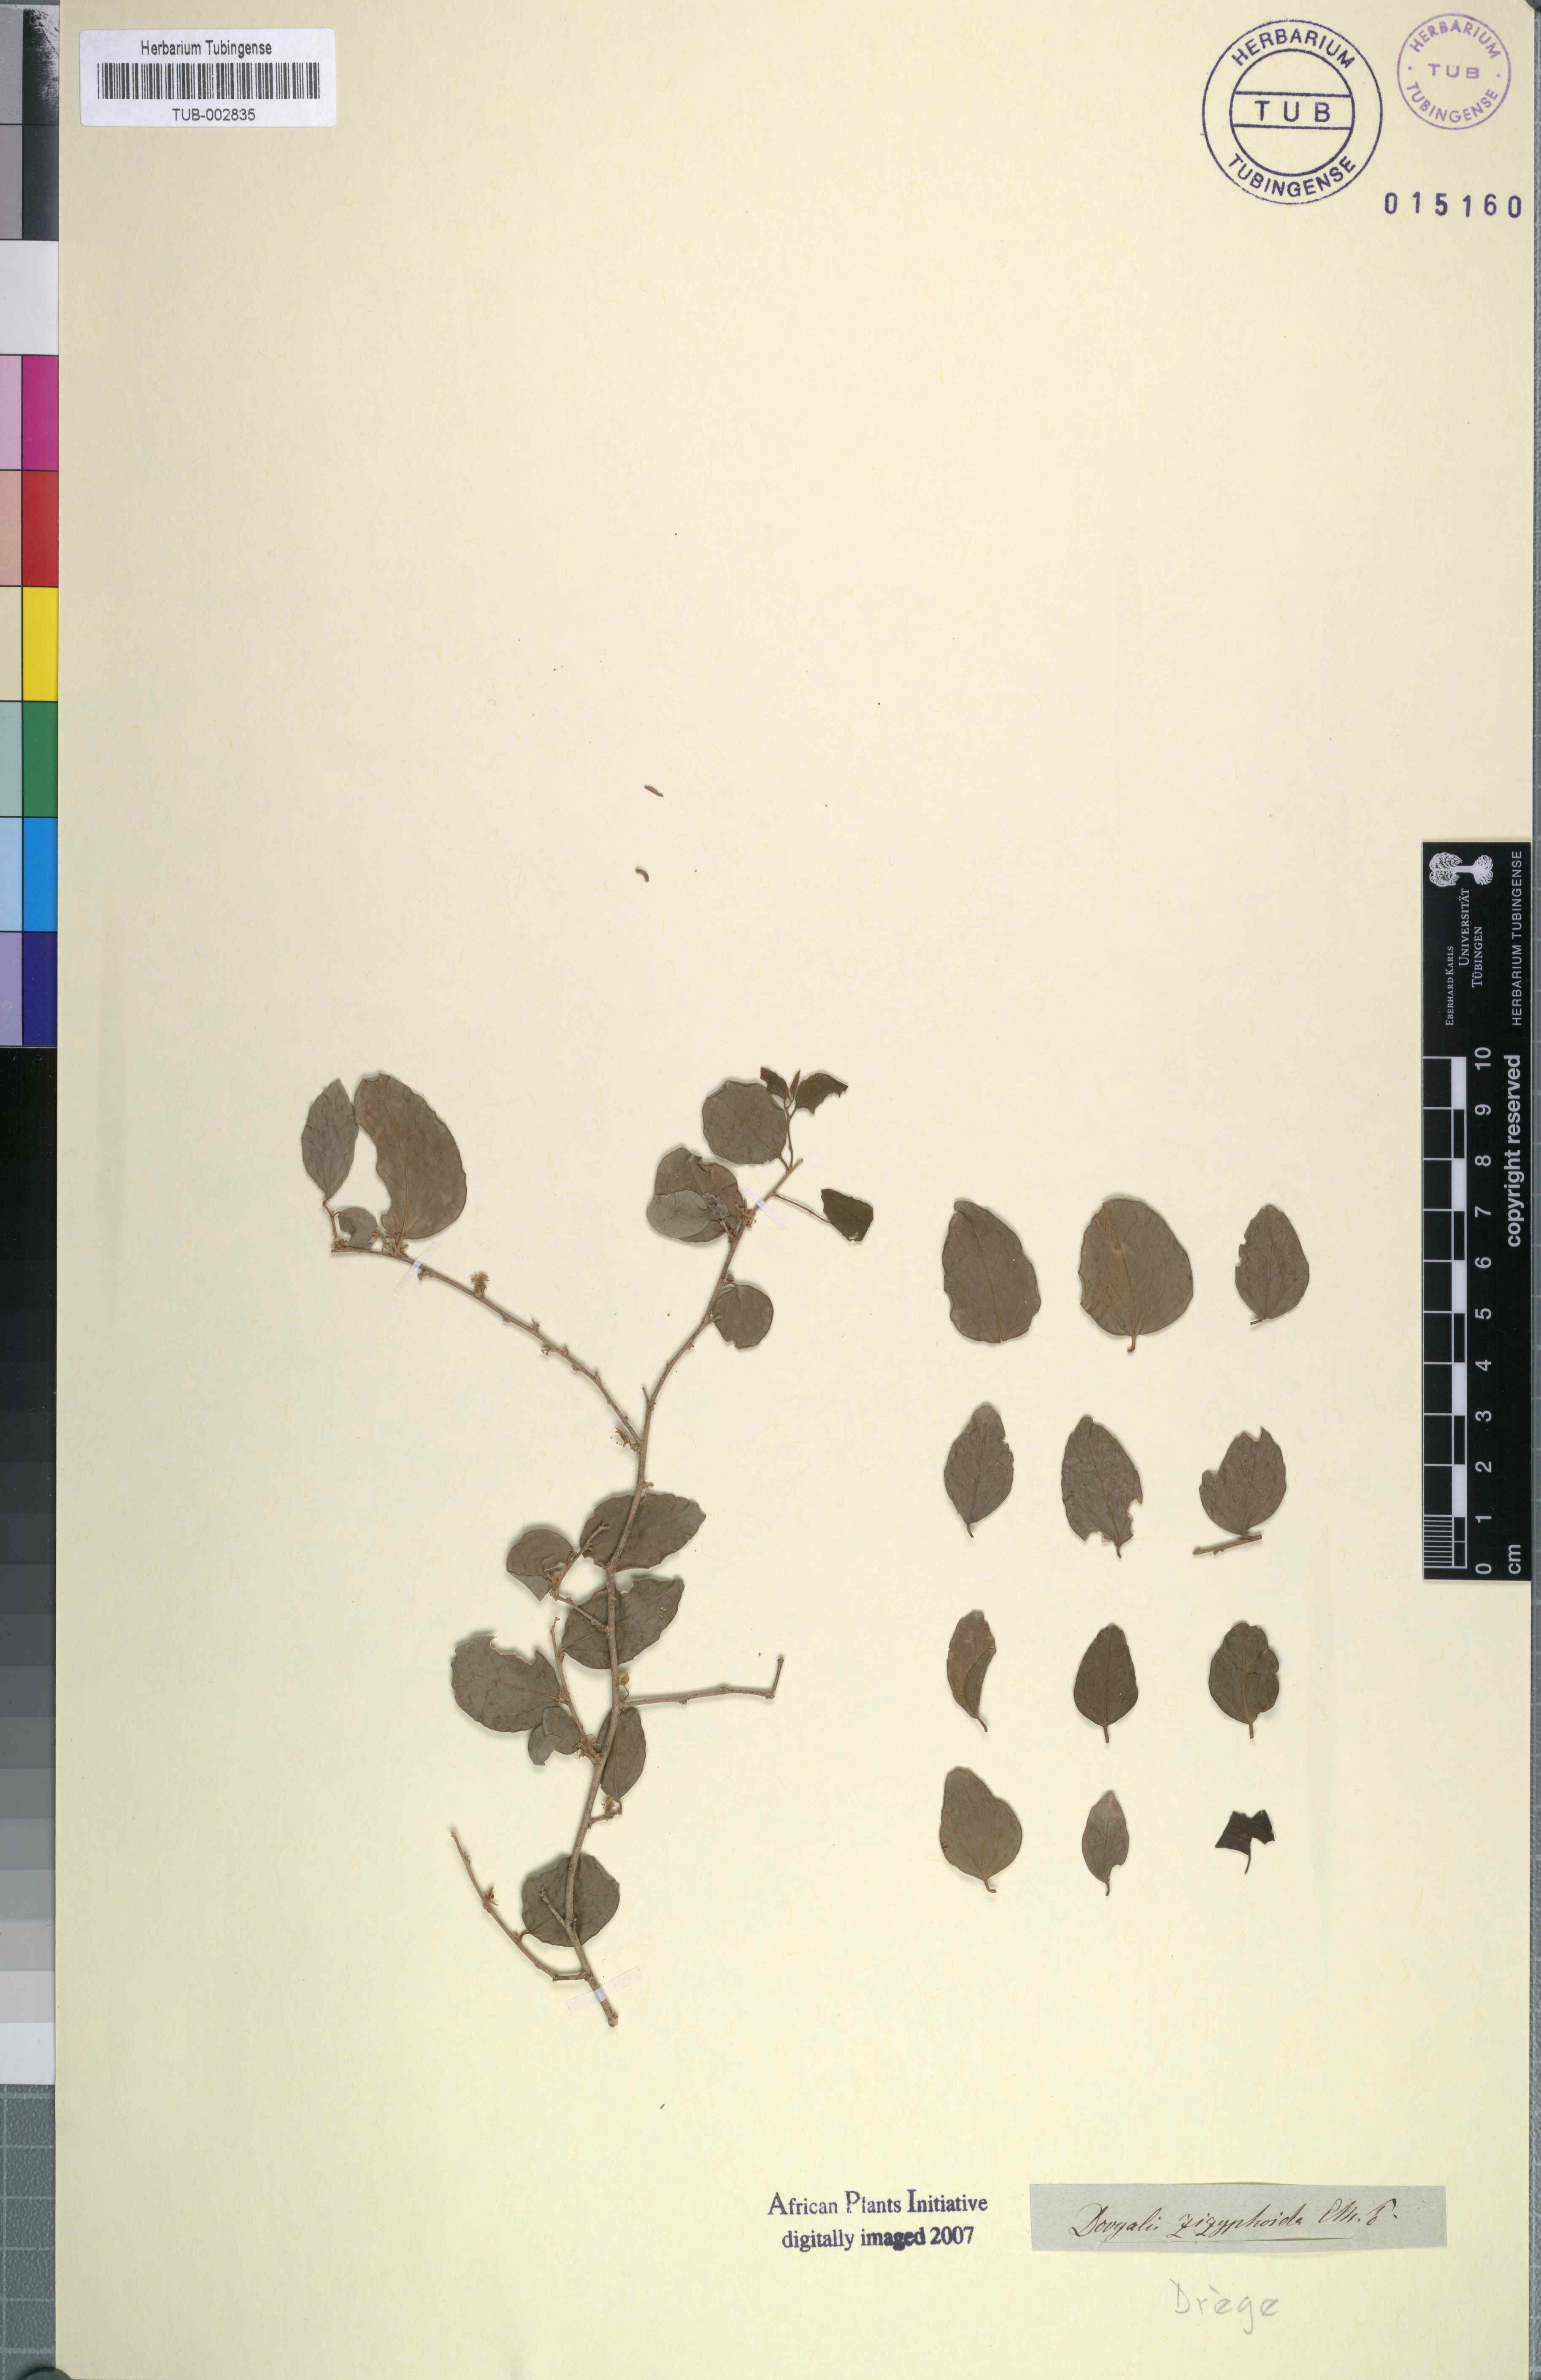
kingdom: Plantae
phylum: Tracheophyta
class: Magnoliopsida
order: Malpighiales
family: Salicaceae
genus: Dovyalis
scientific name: Dovyalis rhamnoides
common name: Sourberry
